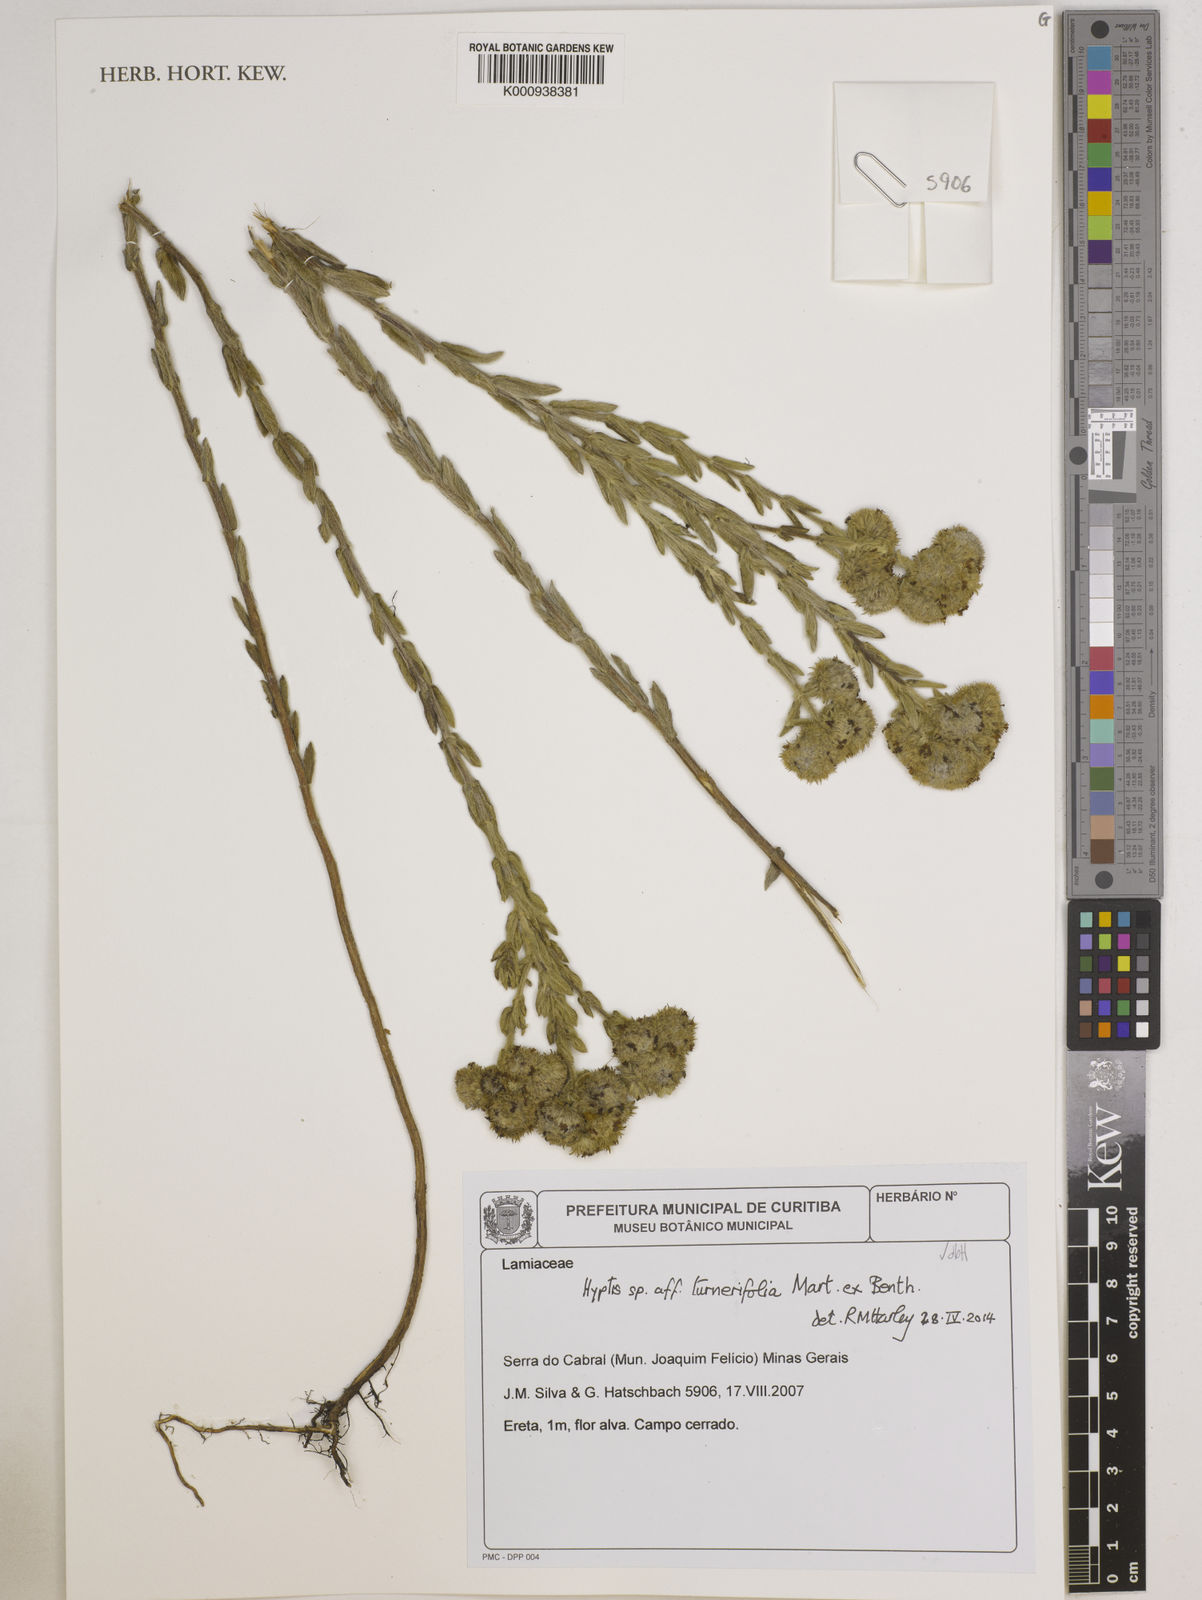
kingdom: Plantae
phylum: Tracheophyta
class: Magnoliopsida
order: Lamiales
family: Lamiaceae
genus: Hyptis
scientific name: Hyptis
